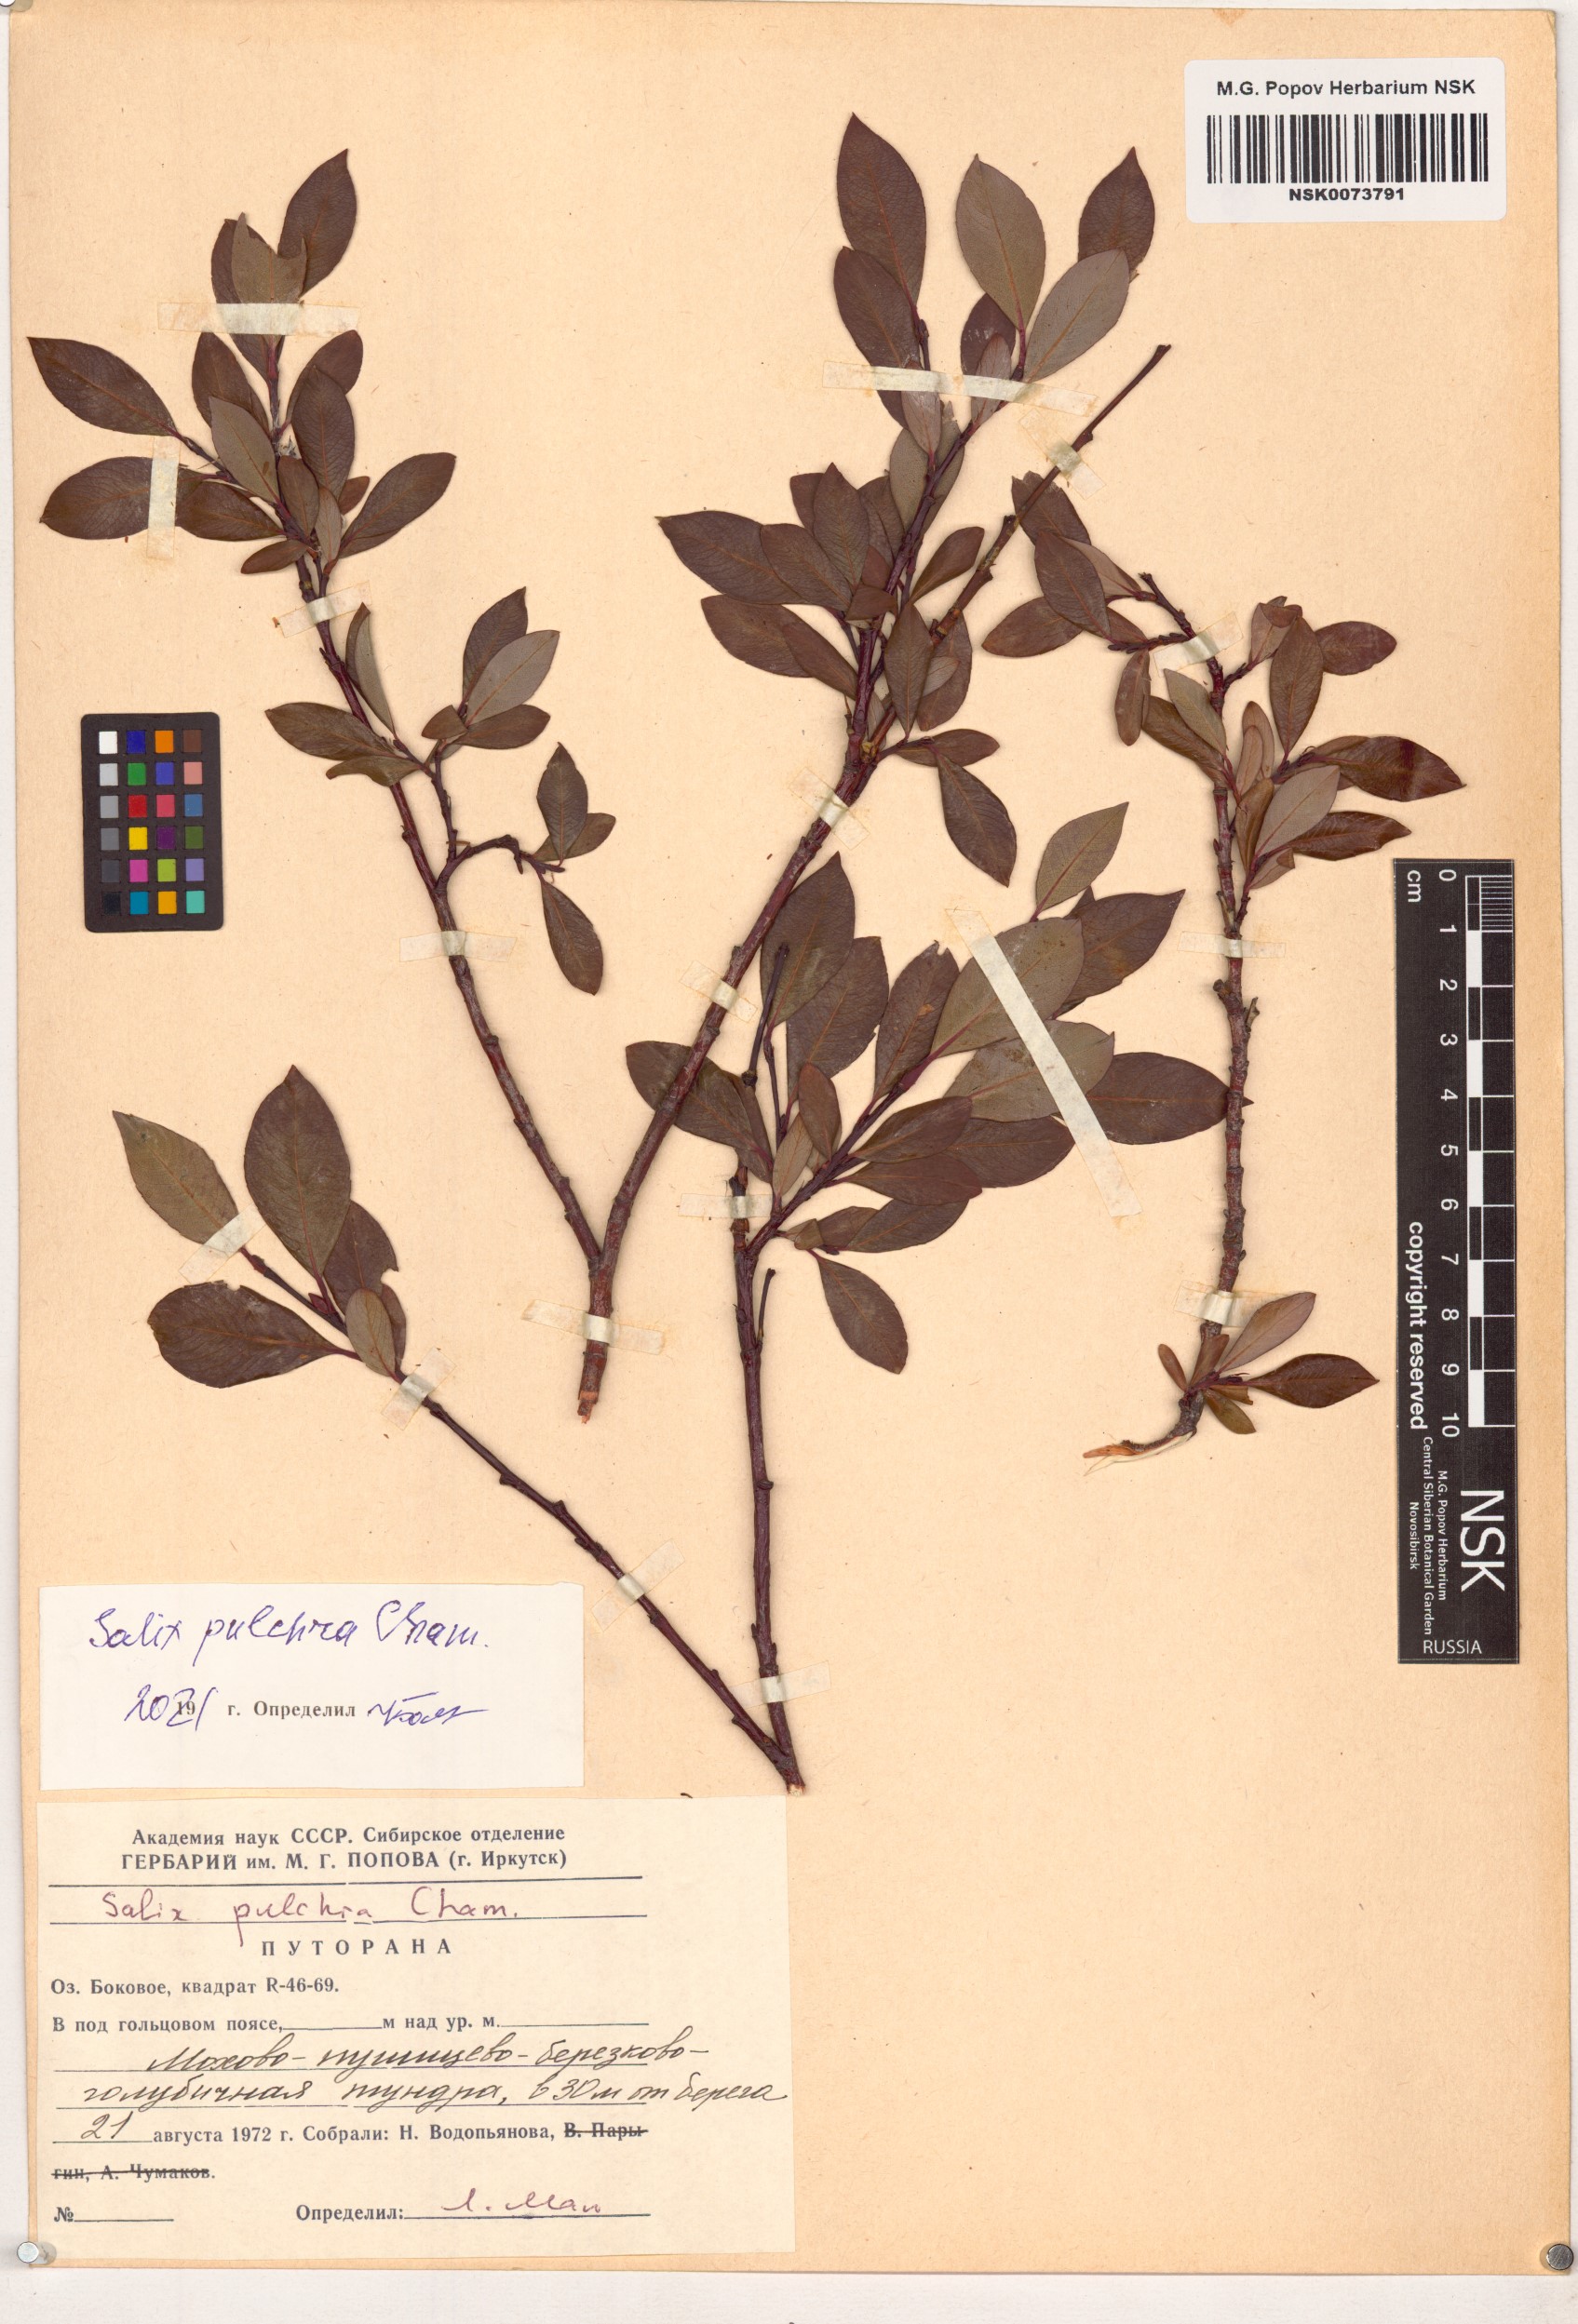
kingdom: Plantae
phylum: Tracheophyta
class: Magnoliopsida
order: Malpighiales
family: Salicaceae
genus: Salix
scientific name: Salix pulchra
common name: Diamond-leaved willow
